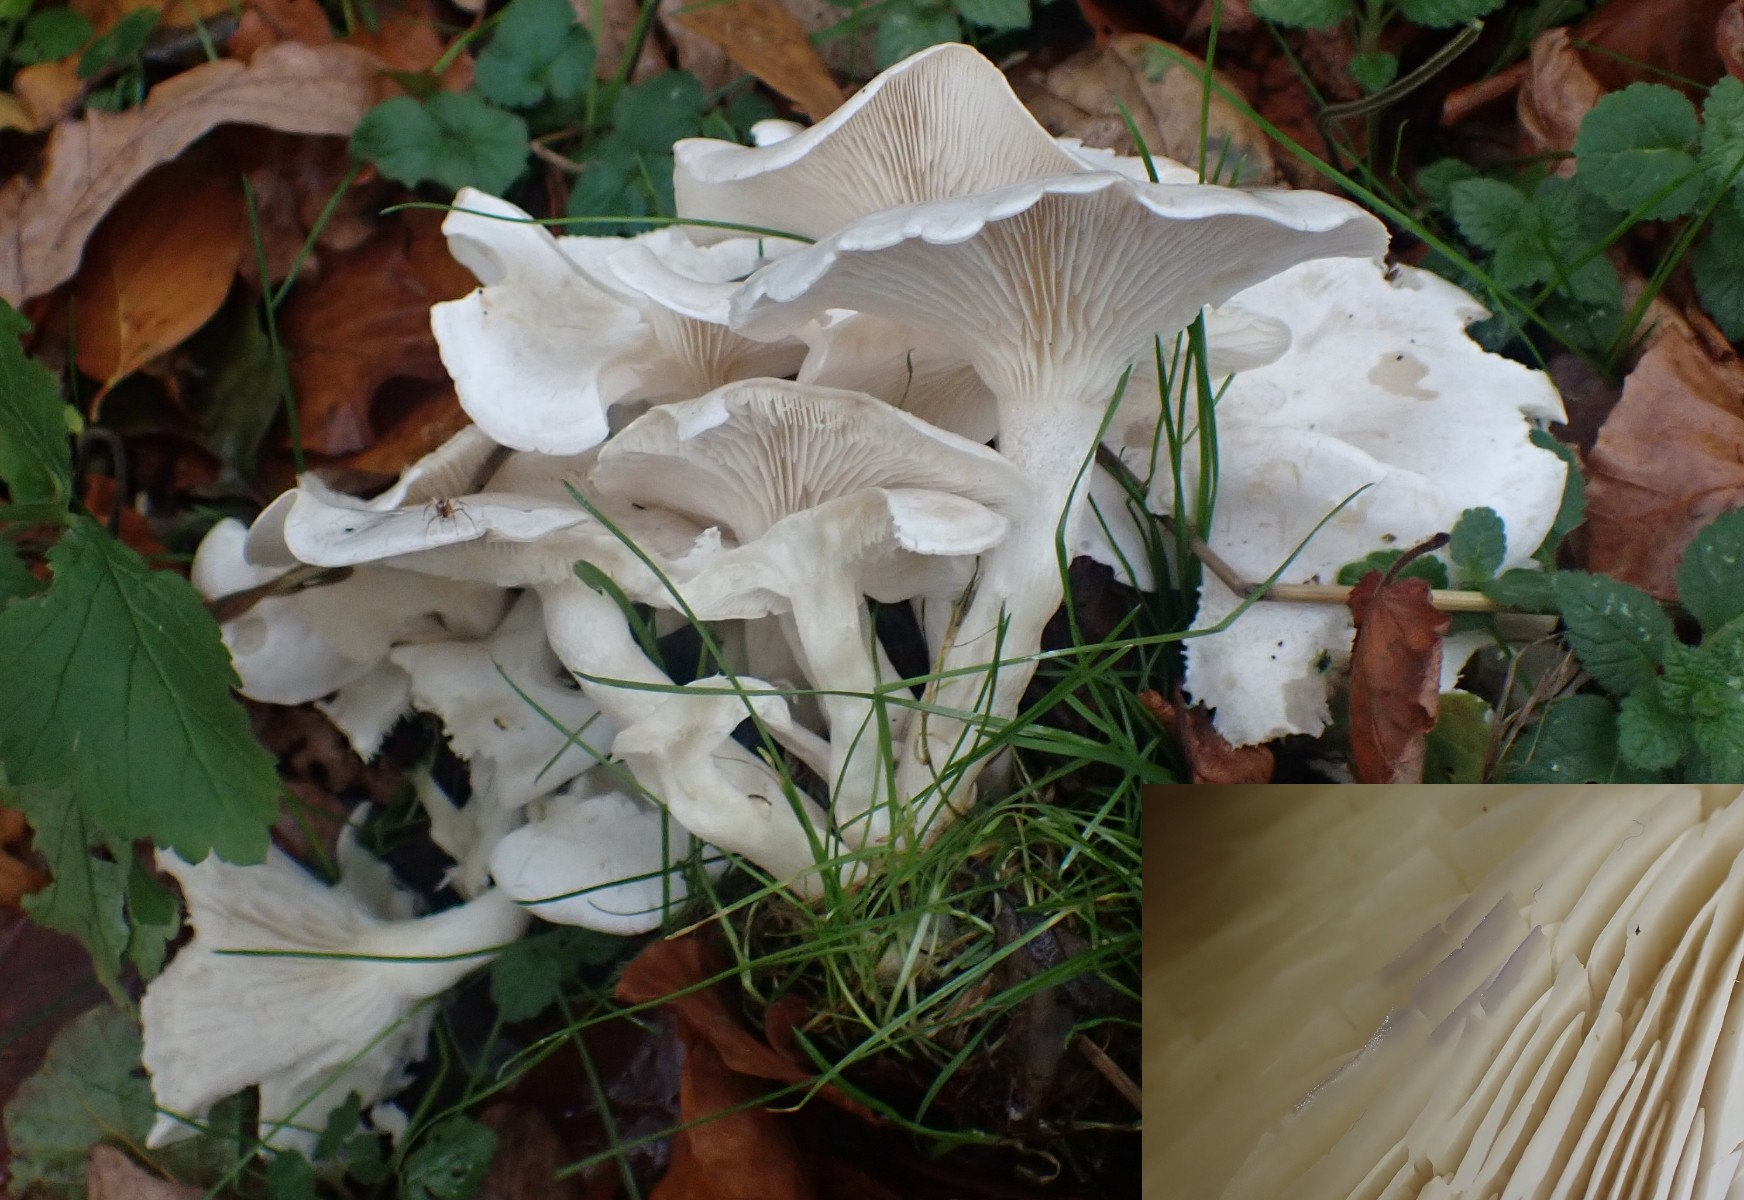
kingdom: Fungi
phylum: Basidiomycota
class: Agaricomycetes
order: Agaricales
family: Tricholomataceae
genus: Leucocybe
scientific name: Leucocybe connata
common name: knippe-tragthat
